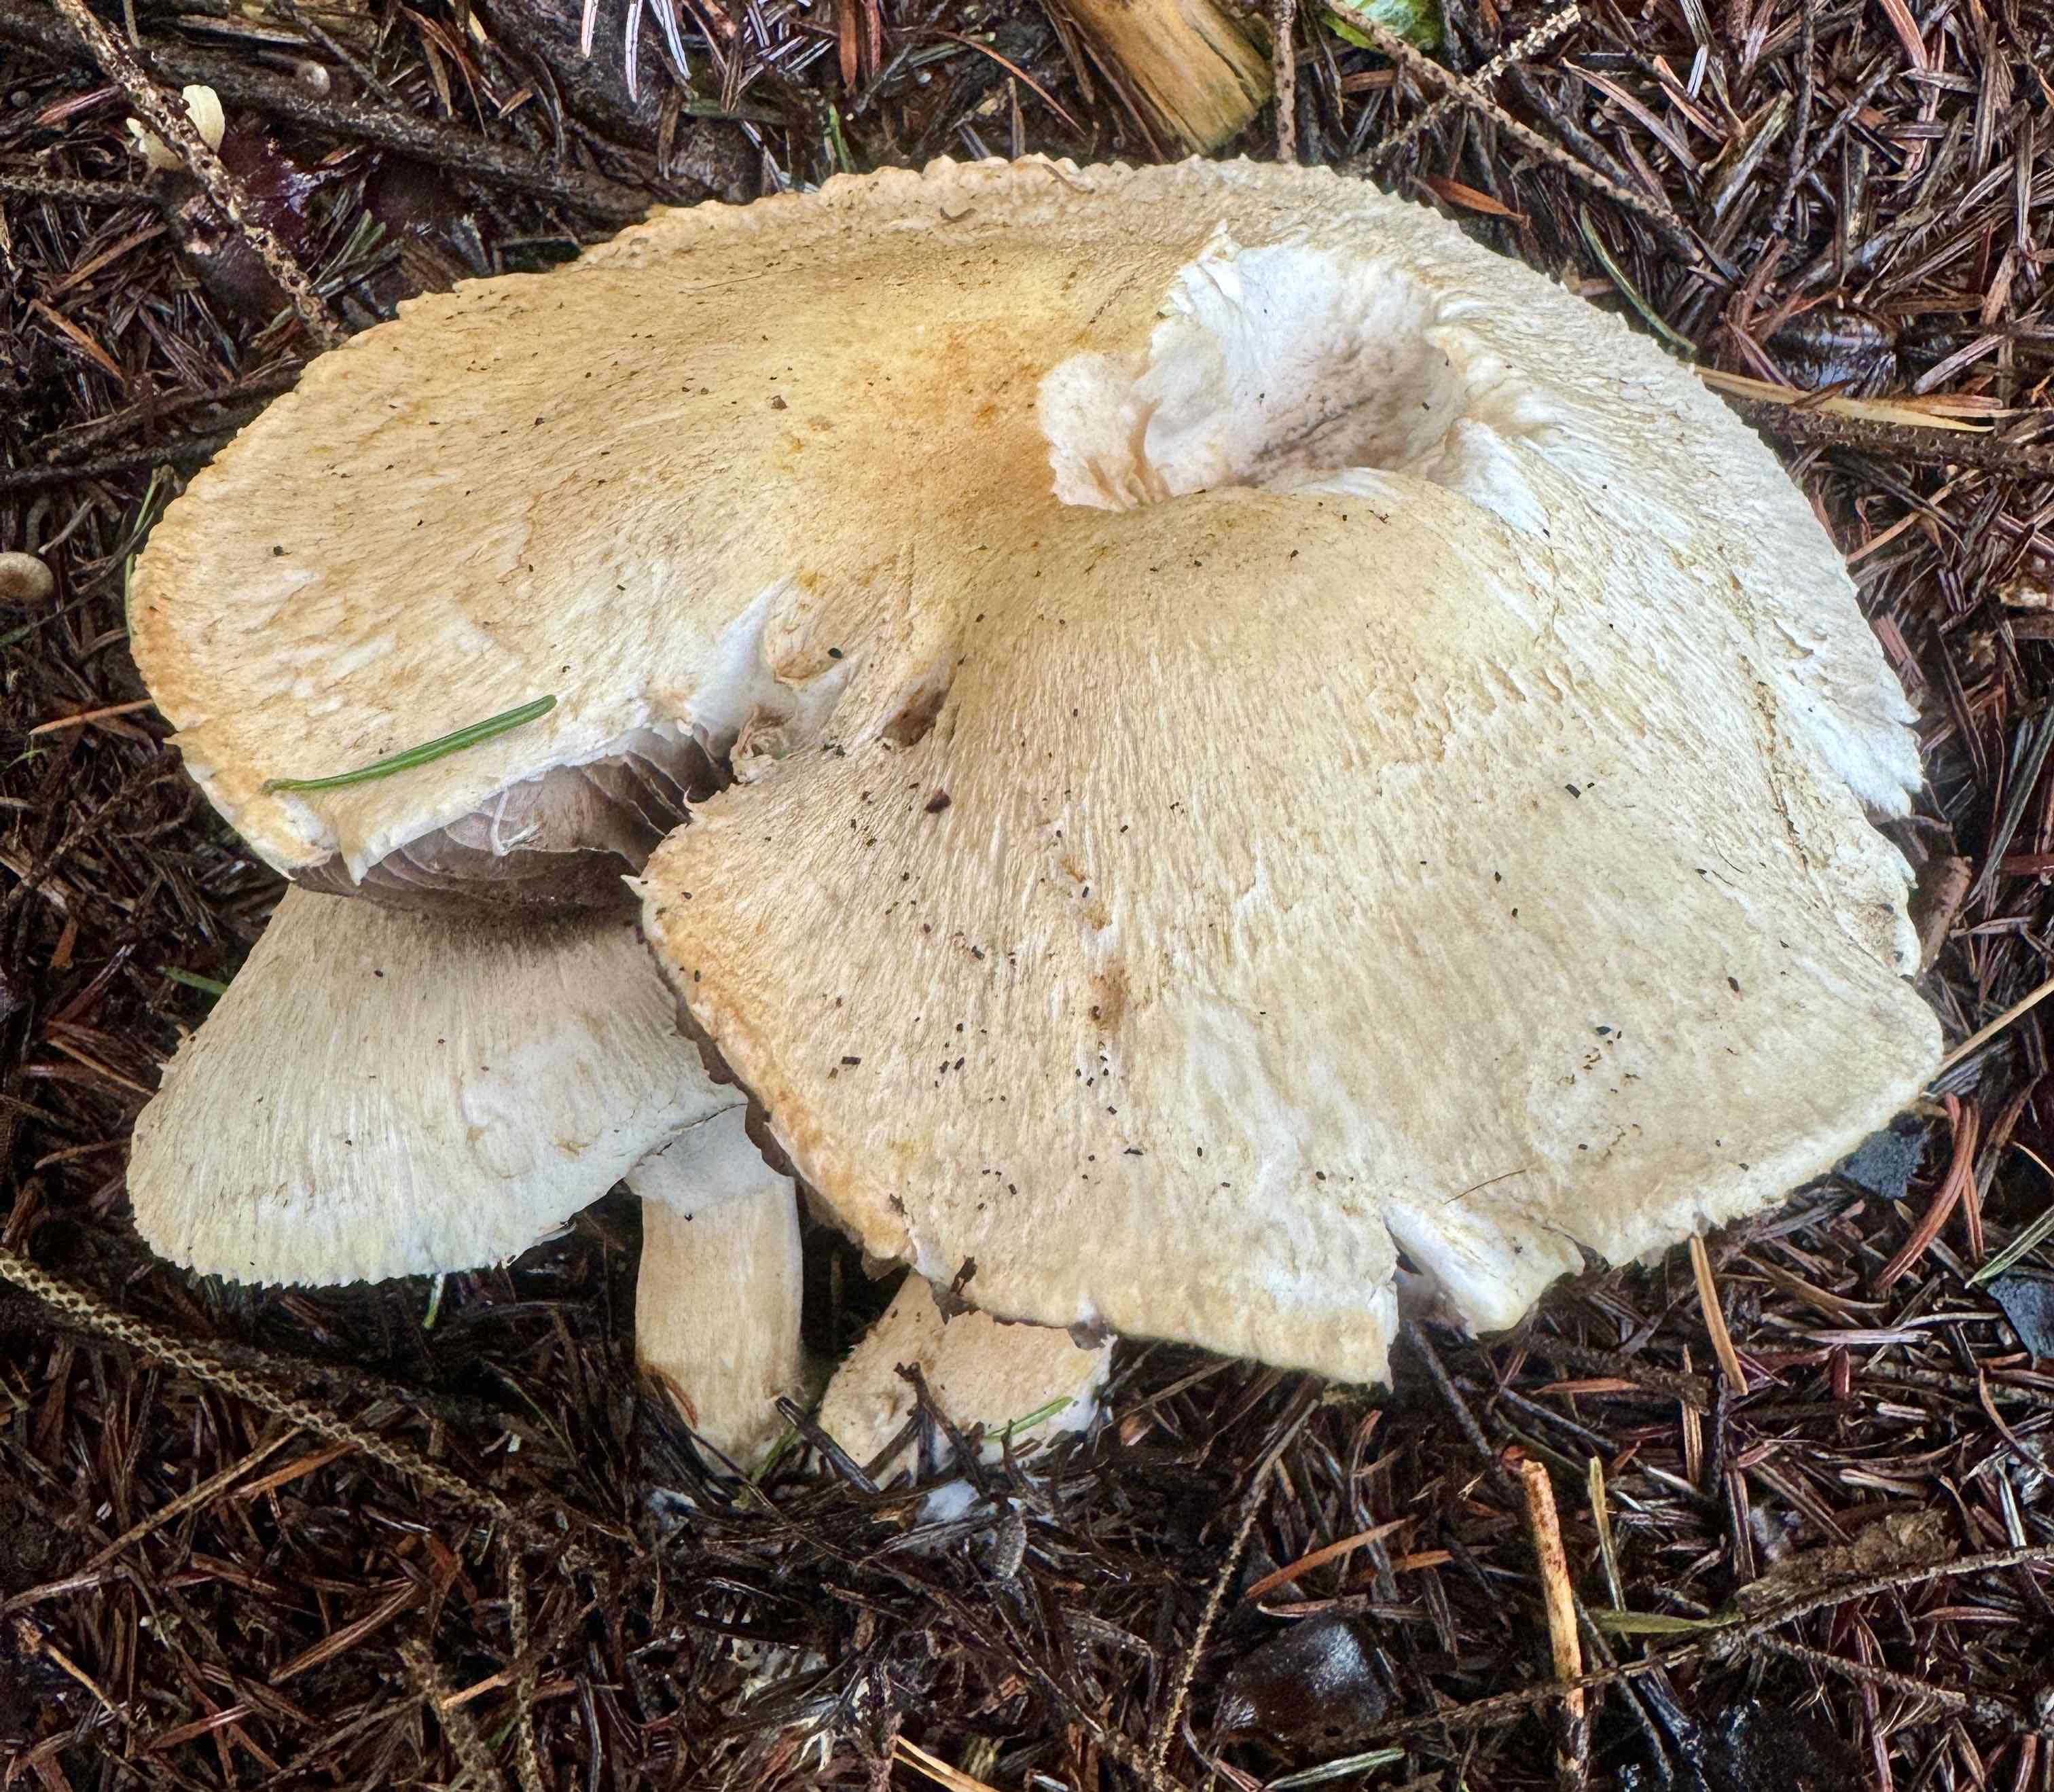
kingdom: Fungi
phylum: Basidiomycota
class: Agaricomycetes
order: Agaricales
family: Agaricaceae
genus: Agaricus
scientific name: Agaricus sylvicola
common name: gulhvid champignon
